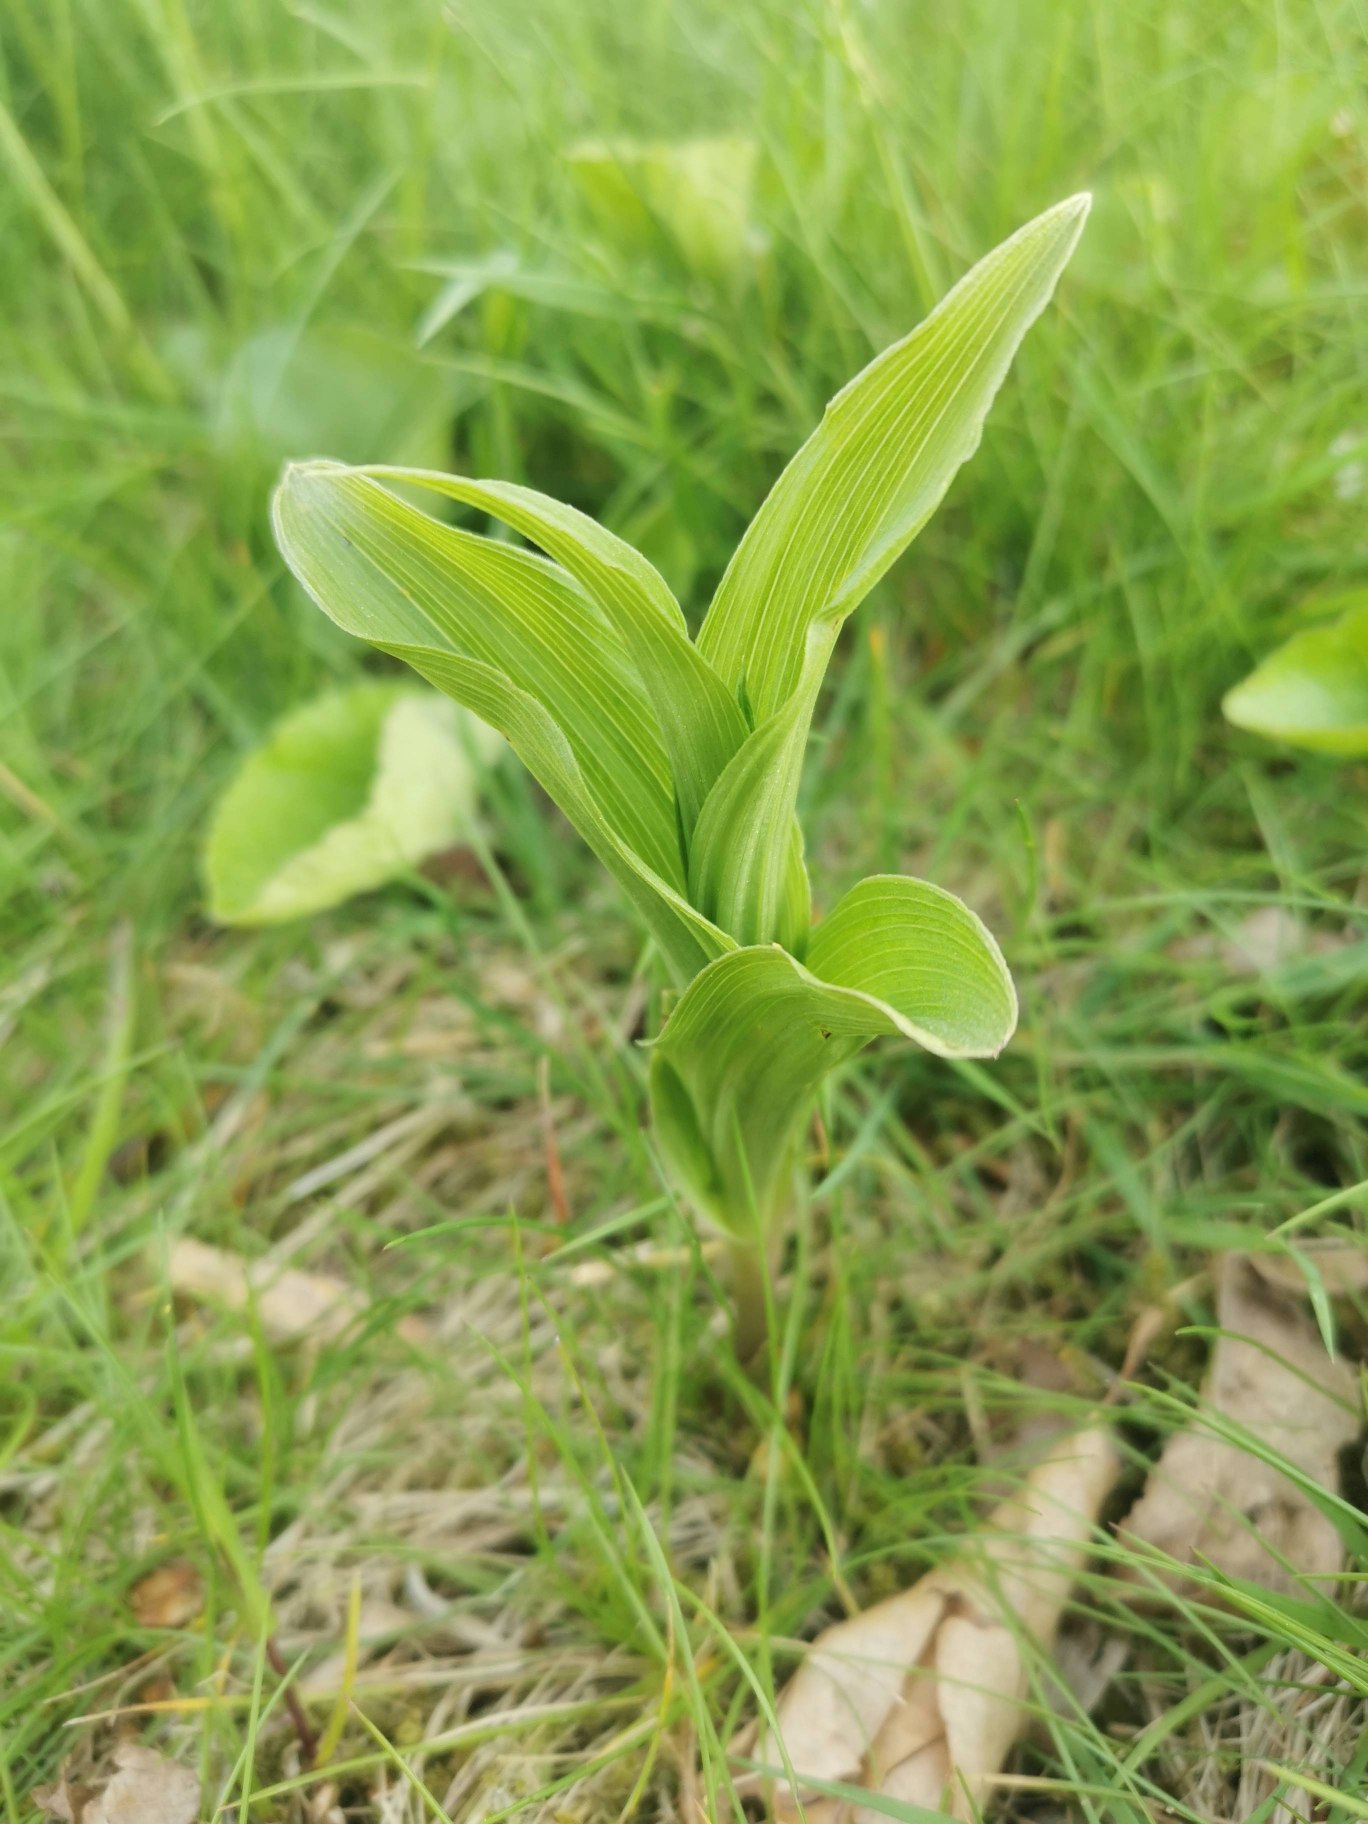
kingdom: Plantae
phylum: Tracheophyta
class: Liliopsida
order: Asparagales
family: Orchidaceae
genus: Epipactis
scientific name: Epipactis
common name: Hullæbeslægten
